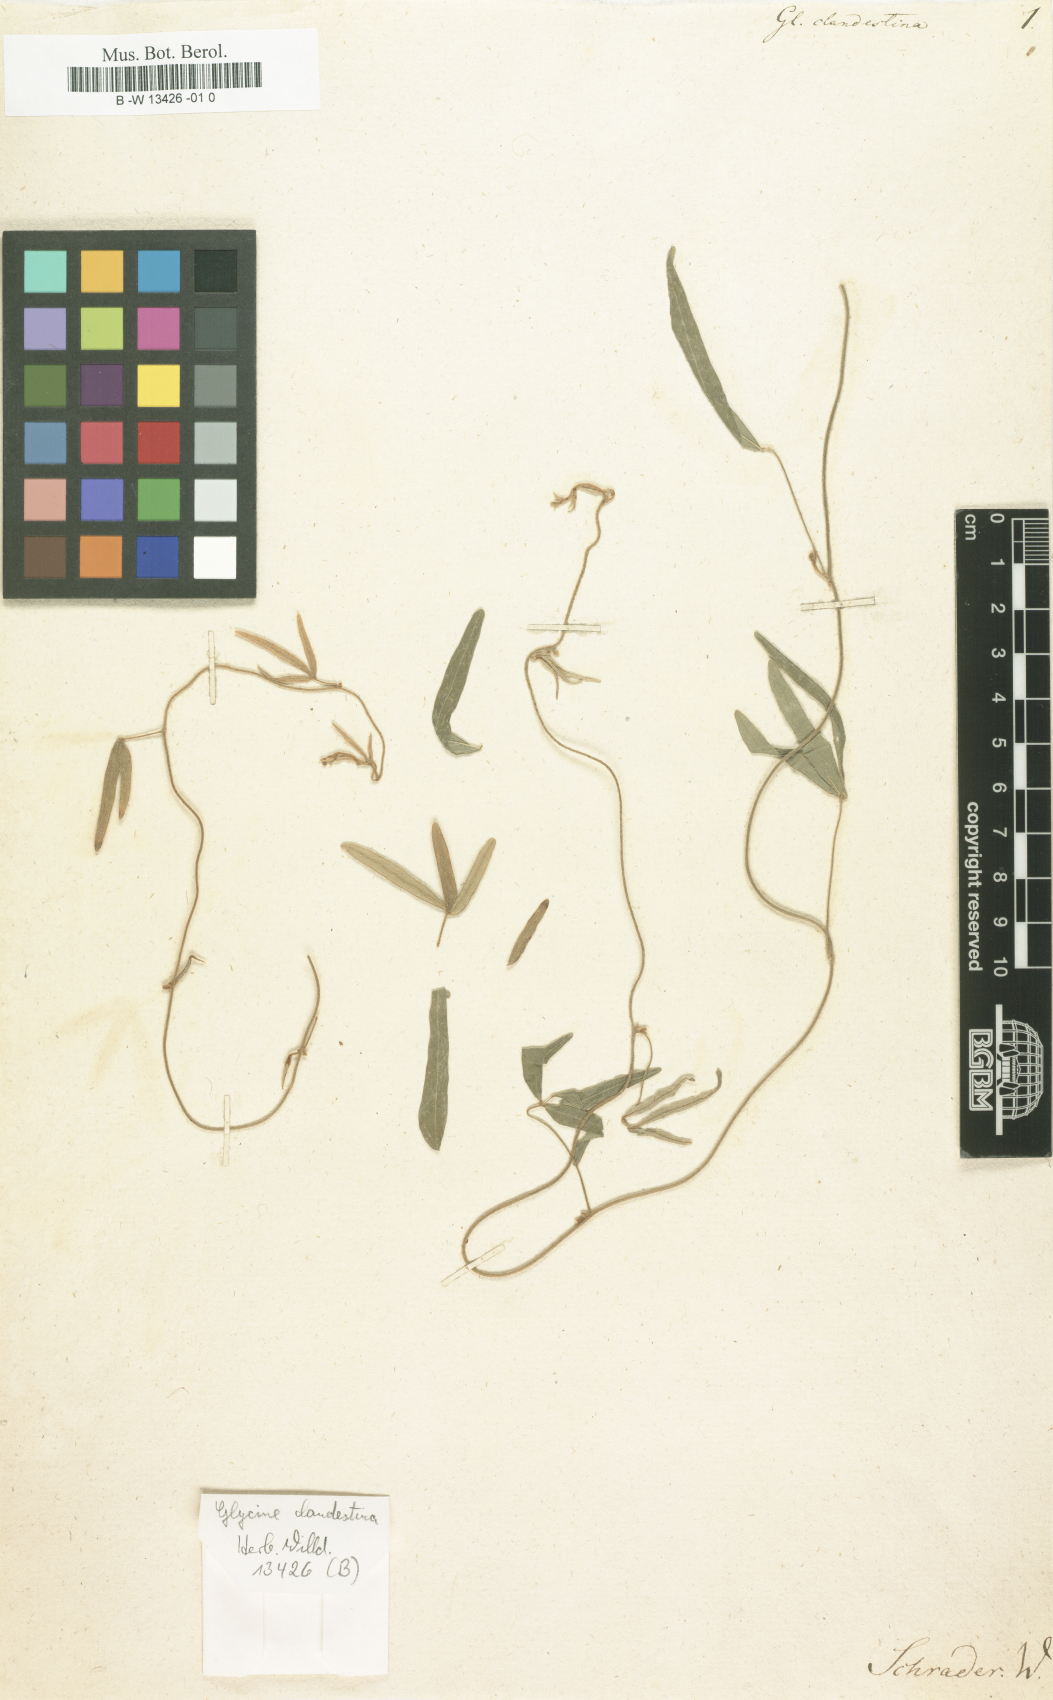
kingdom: Plantae
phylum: Tracheophyta
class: Magnoliopsida
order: Fabales
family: Fabaceae
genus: Glycine
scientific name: Glycine clandestina
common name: Twining glycine
